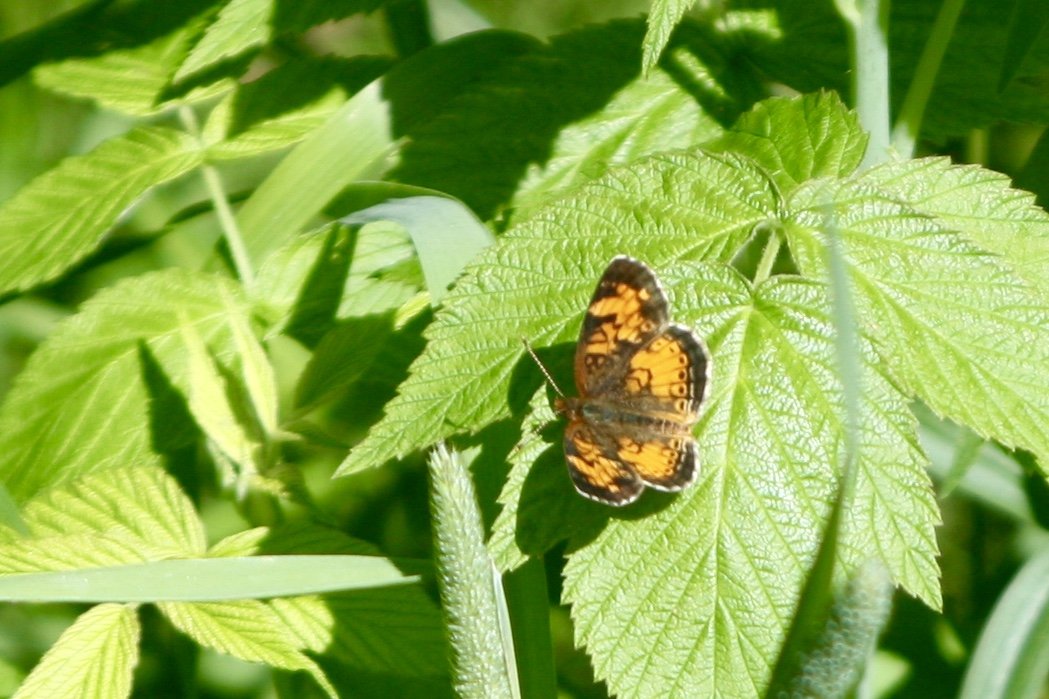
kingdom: Animalia
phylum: Arthropoda
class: Insecta
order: Lepidoptera
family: Nymphalidae
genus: Phyciodes
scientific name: Phyciodes tharos
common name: Northern Crescent
